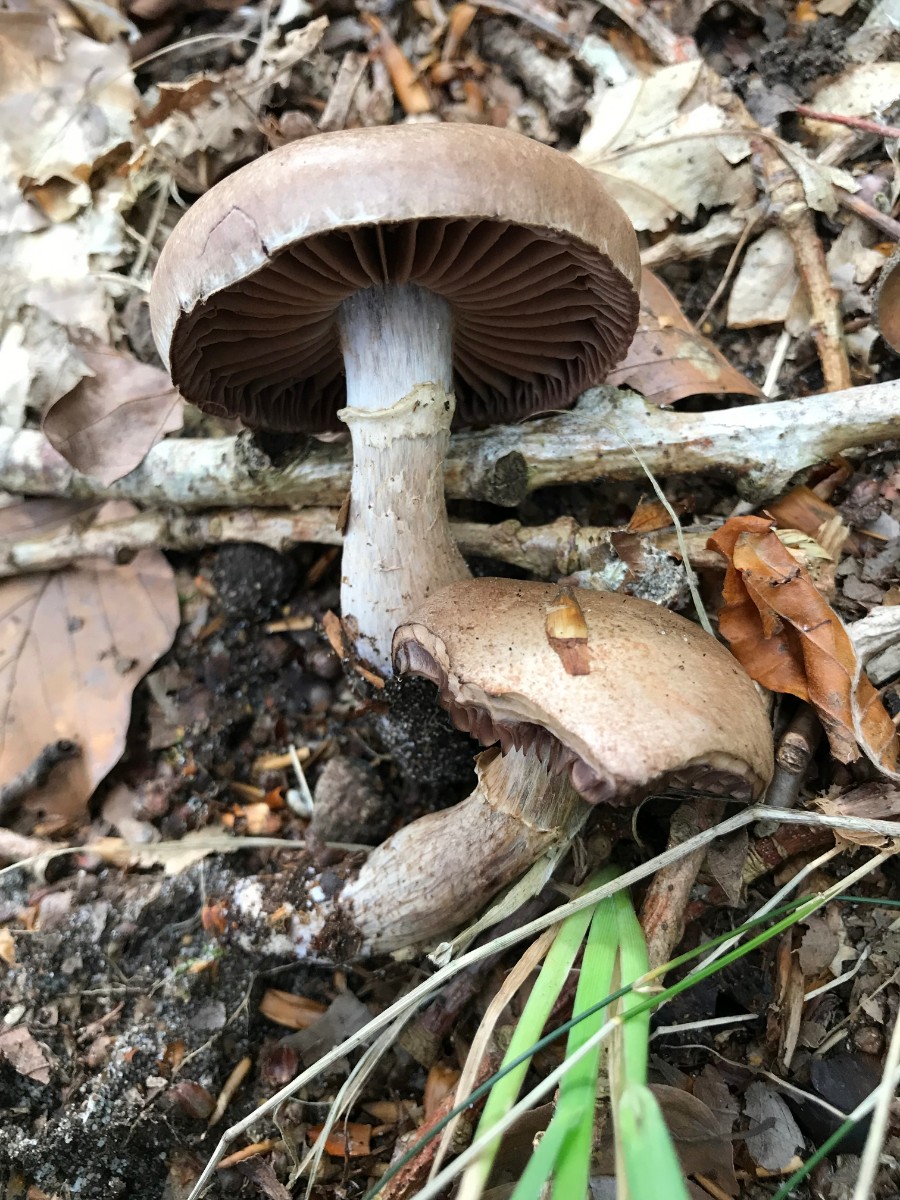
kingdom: Fungi
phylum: Basidiomycota
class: Agaricomycetes
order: Agaricales
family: Cortinariaceae
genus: Cortinarius
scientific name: Cortinarius torvus
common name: champignonagtig slørhat
